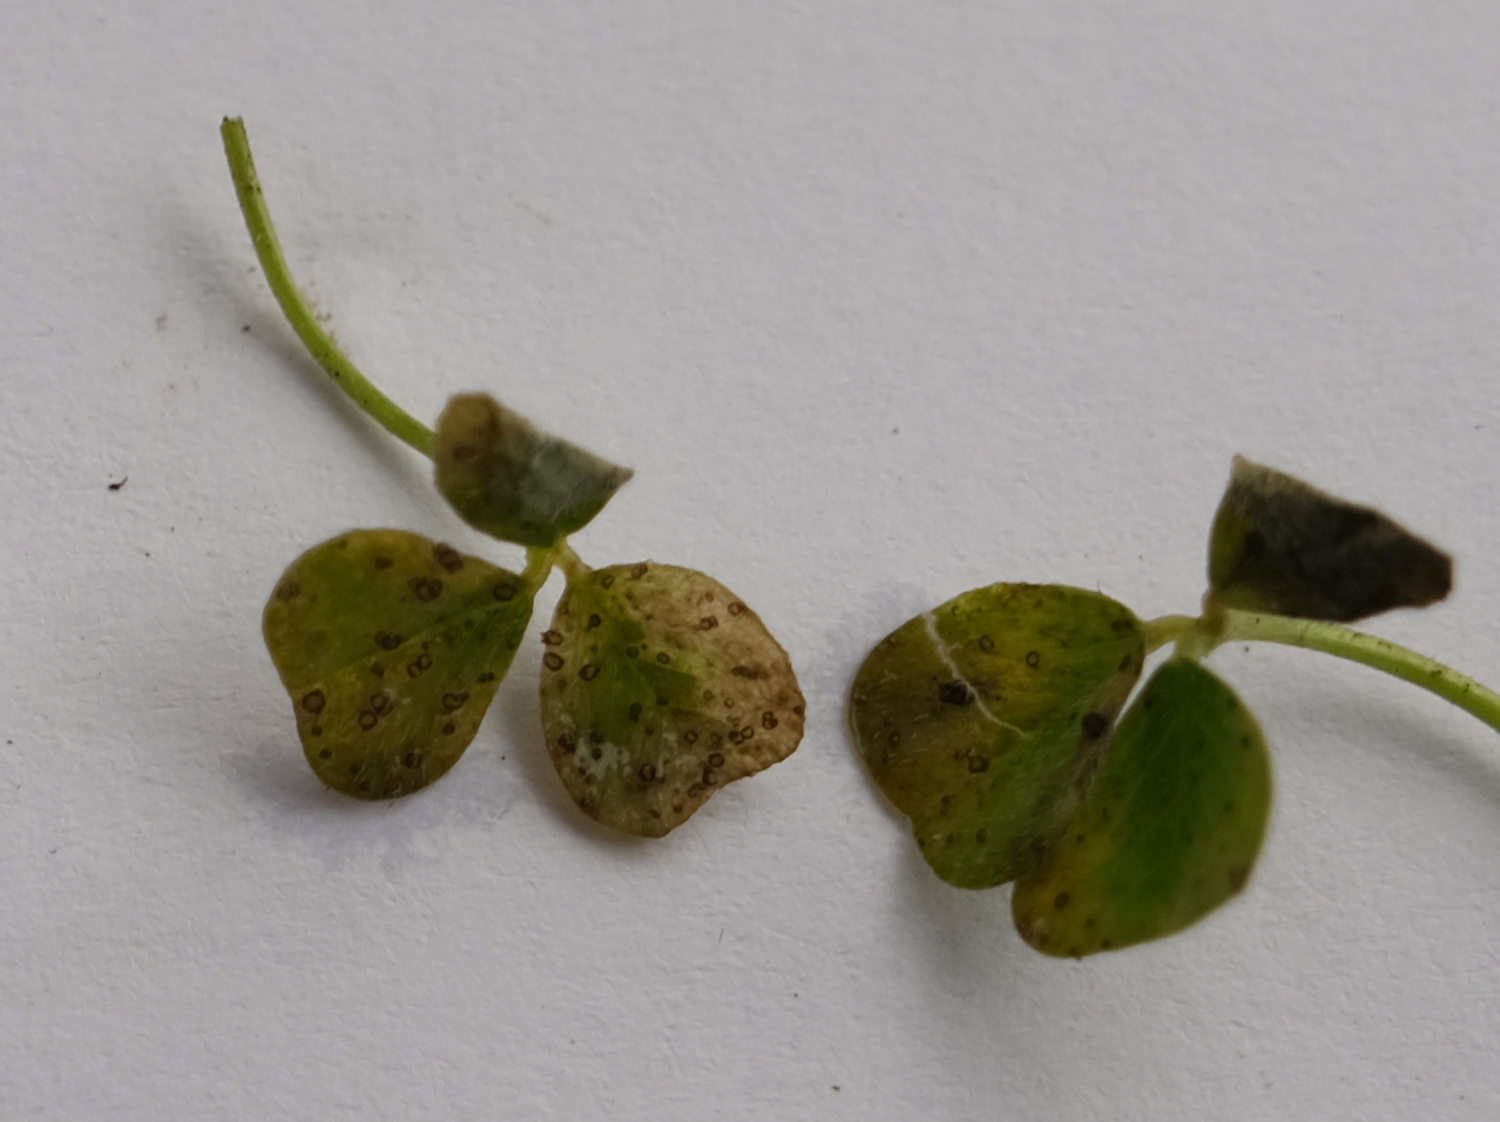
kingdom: Fungi
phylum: Ascomycota
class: Leotiomycetes
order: Helotiales
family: Drepanopezizaceae
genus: Pseudopeziza
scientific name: Pseudopeziza trifolii
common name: kløver-bladskive
